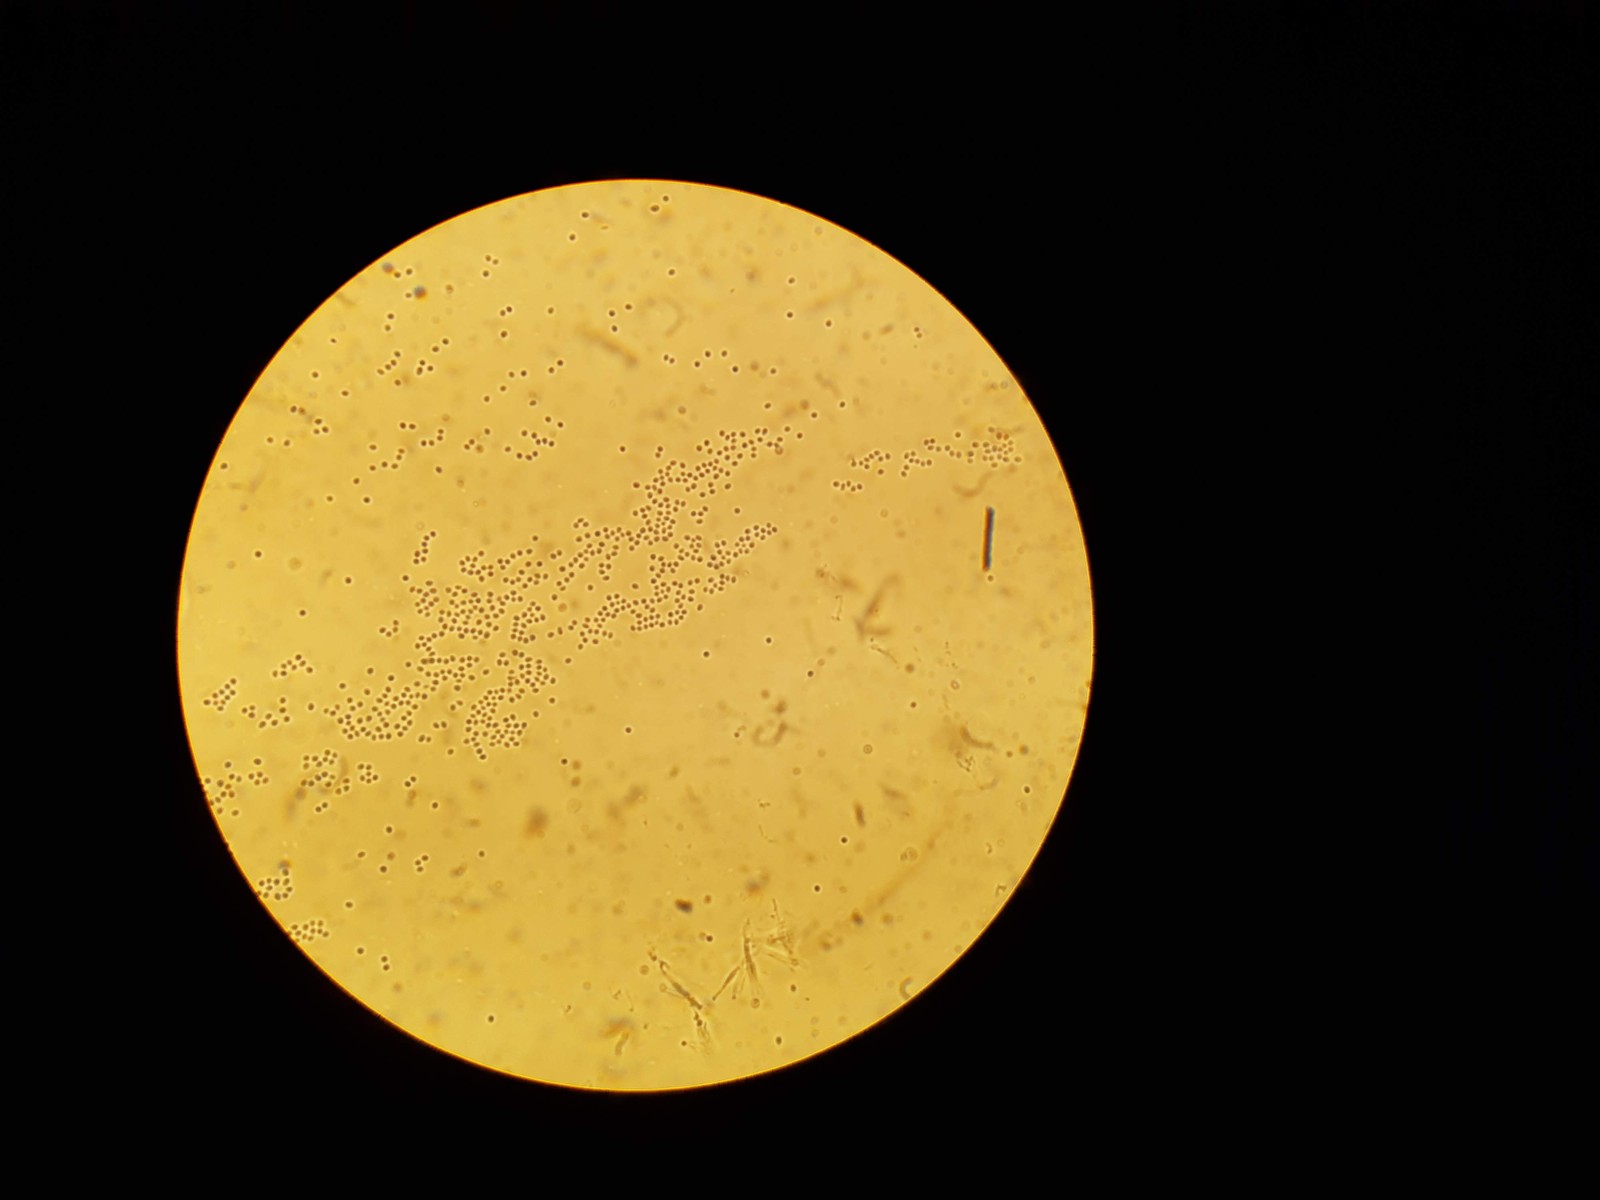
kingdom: Fungi
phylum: Ascomycota
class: Sordariomycetes
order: Hypocreales
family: Ophiocordycipitaceae
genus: Polycephalomyces
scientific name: Polycephalomyces tomentosus
